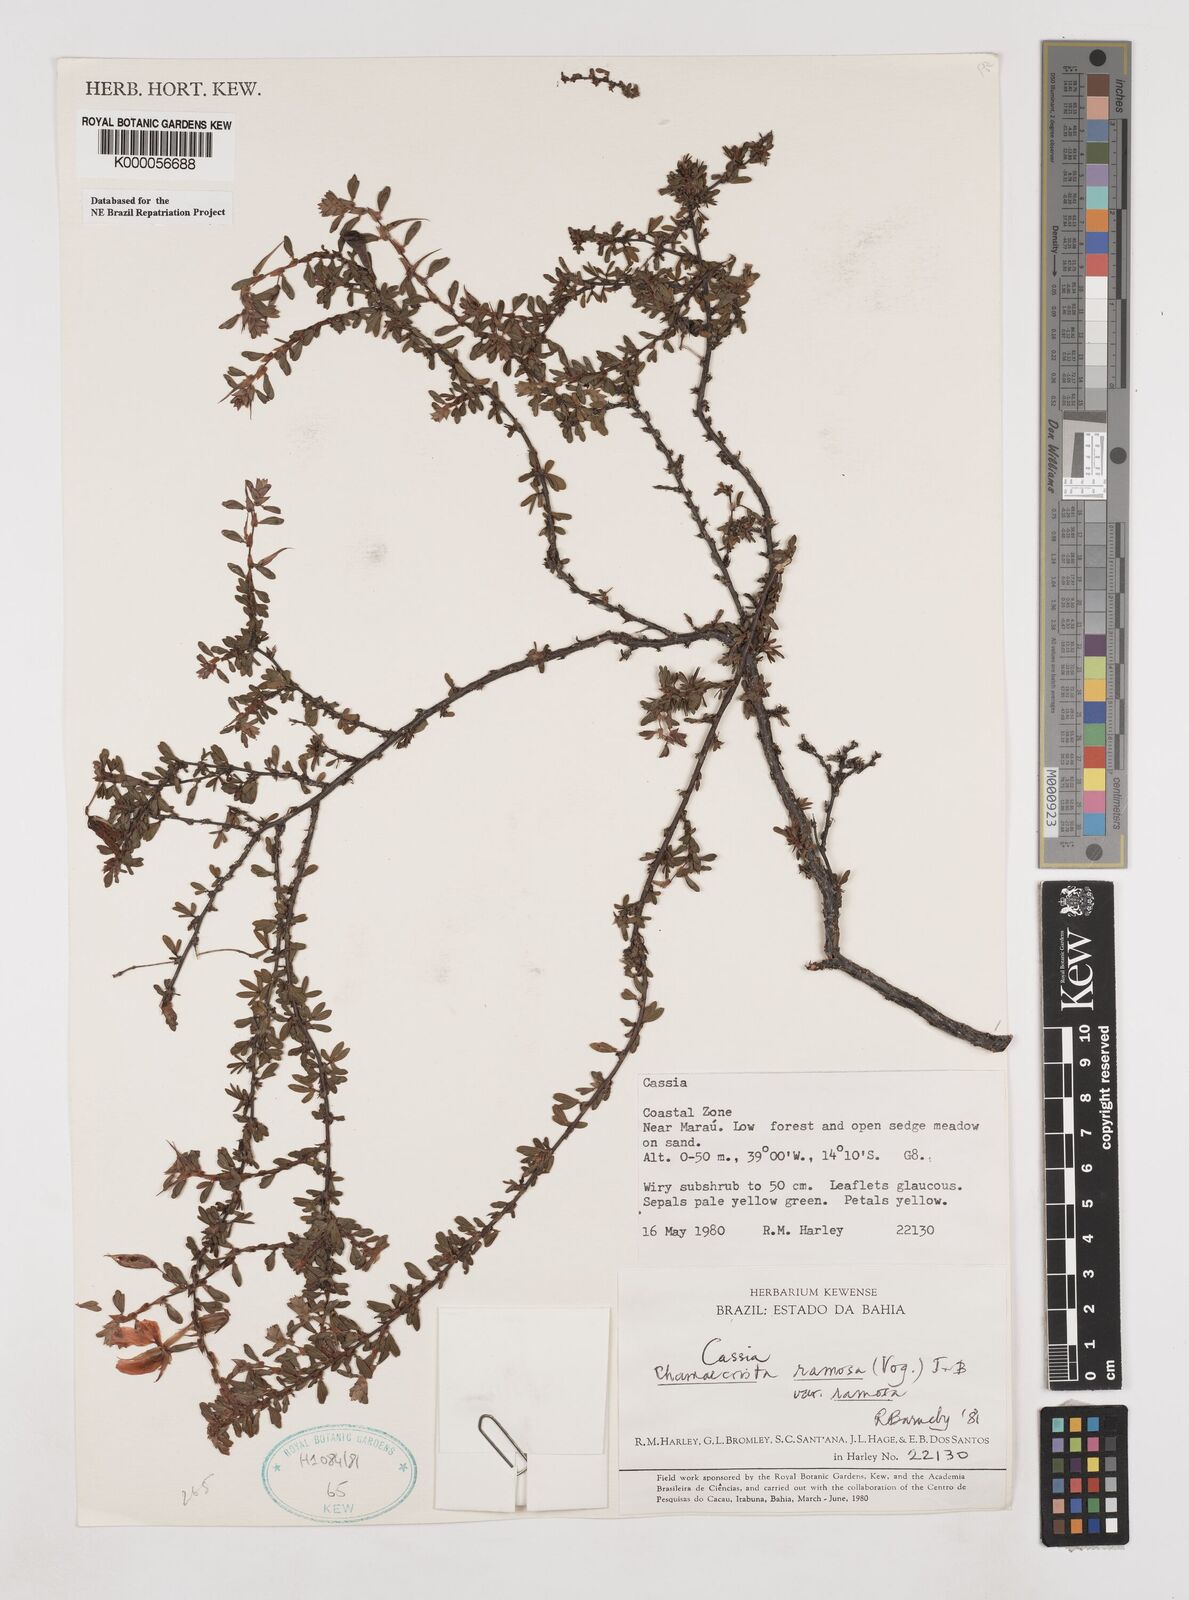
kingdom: Plantae
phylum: Tracheophyta
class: Magnoliopsida
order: Fabales
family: Fabaceae
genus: Chamaecrista
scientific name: Chamaecrista ramosa
